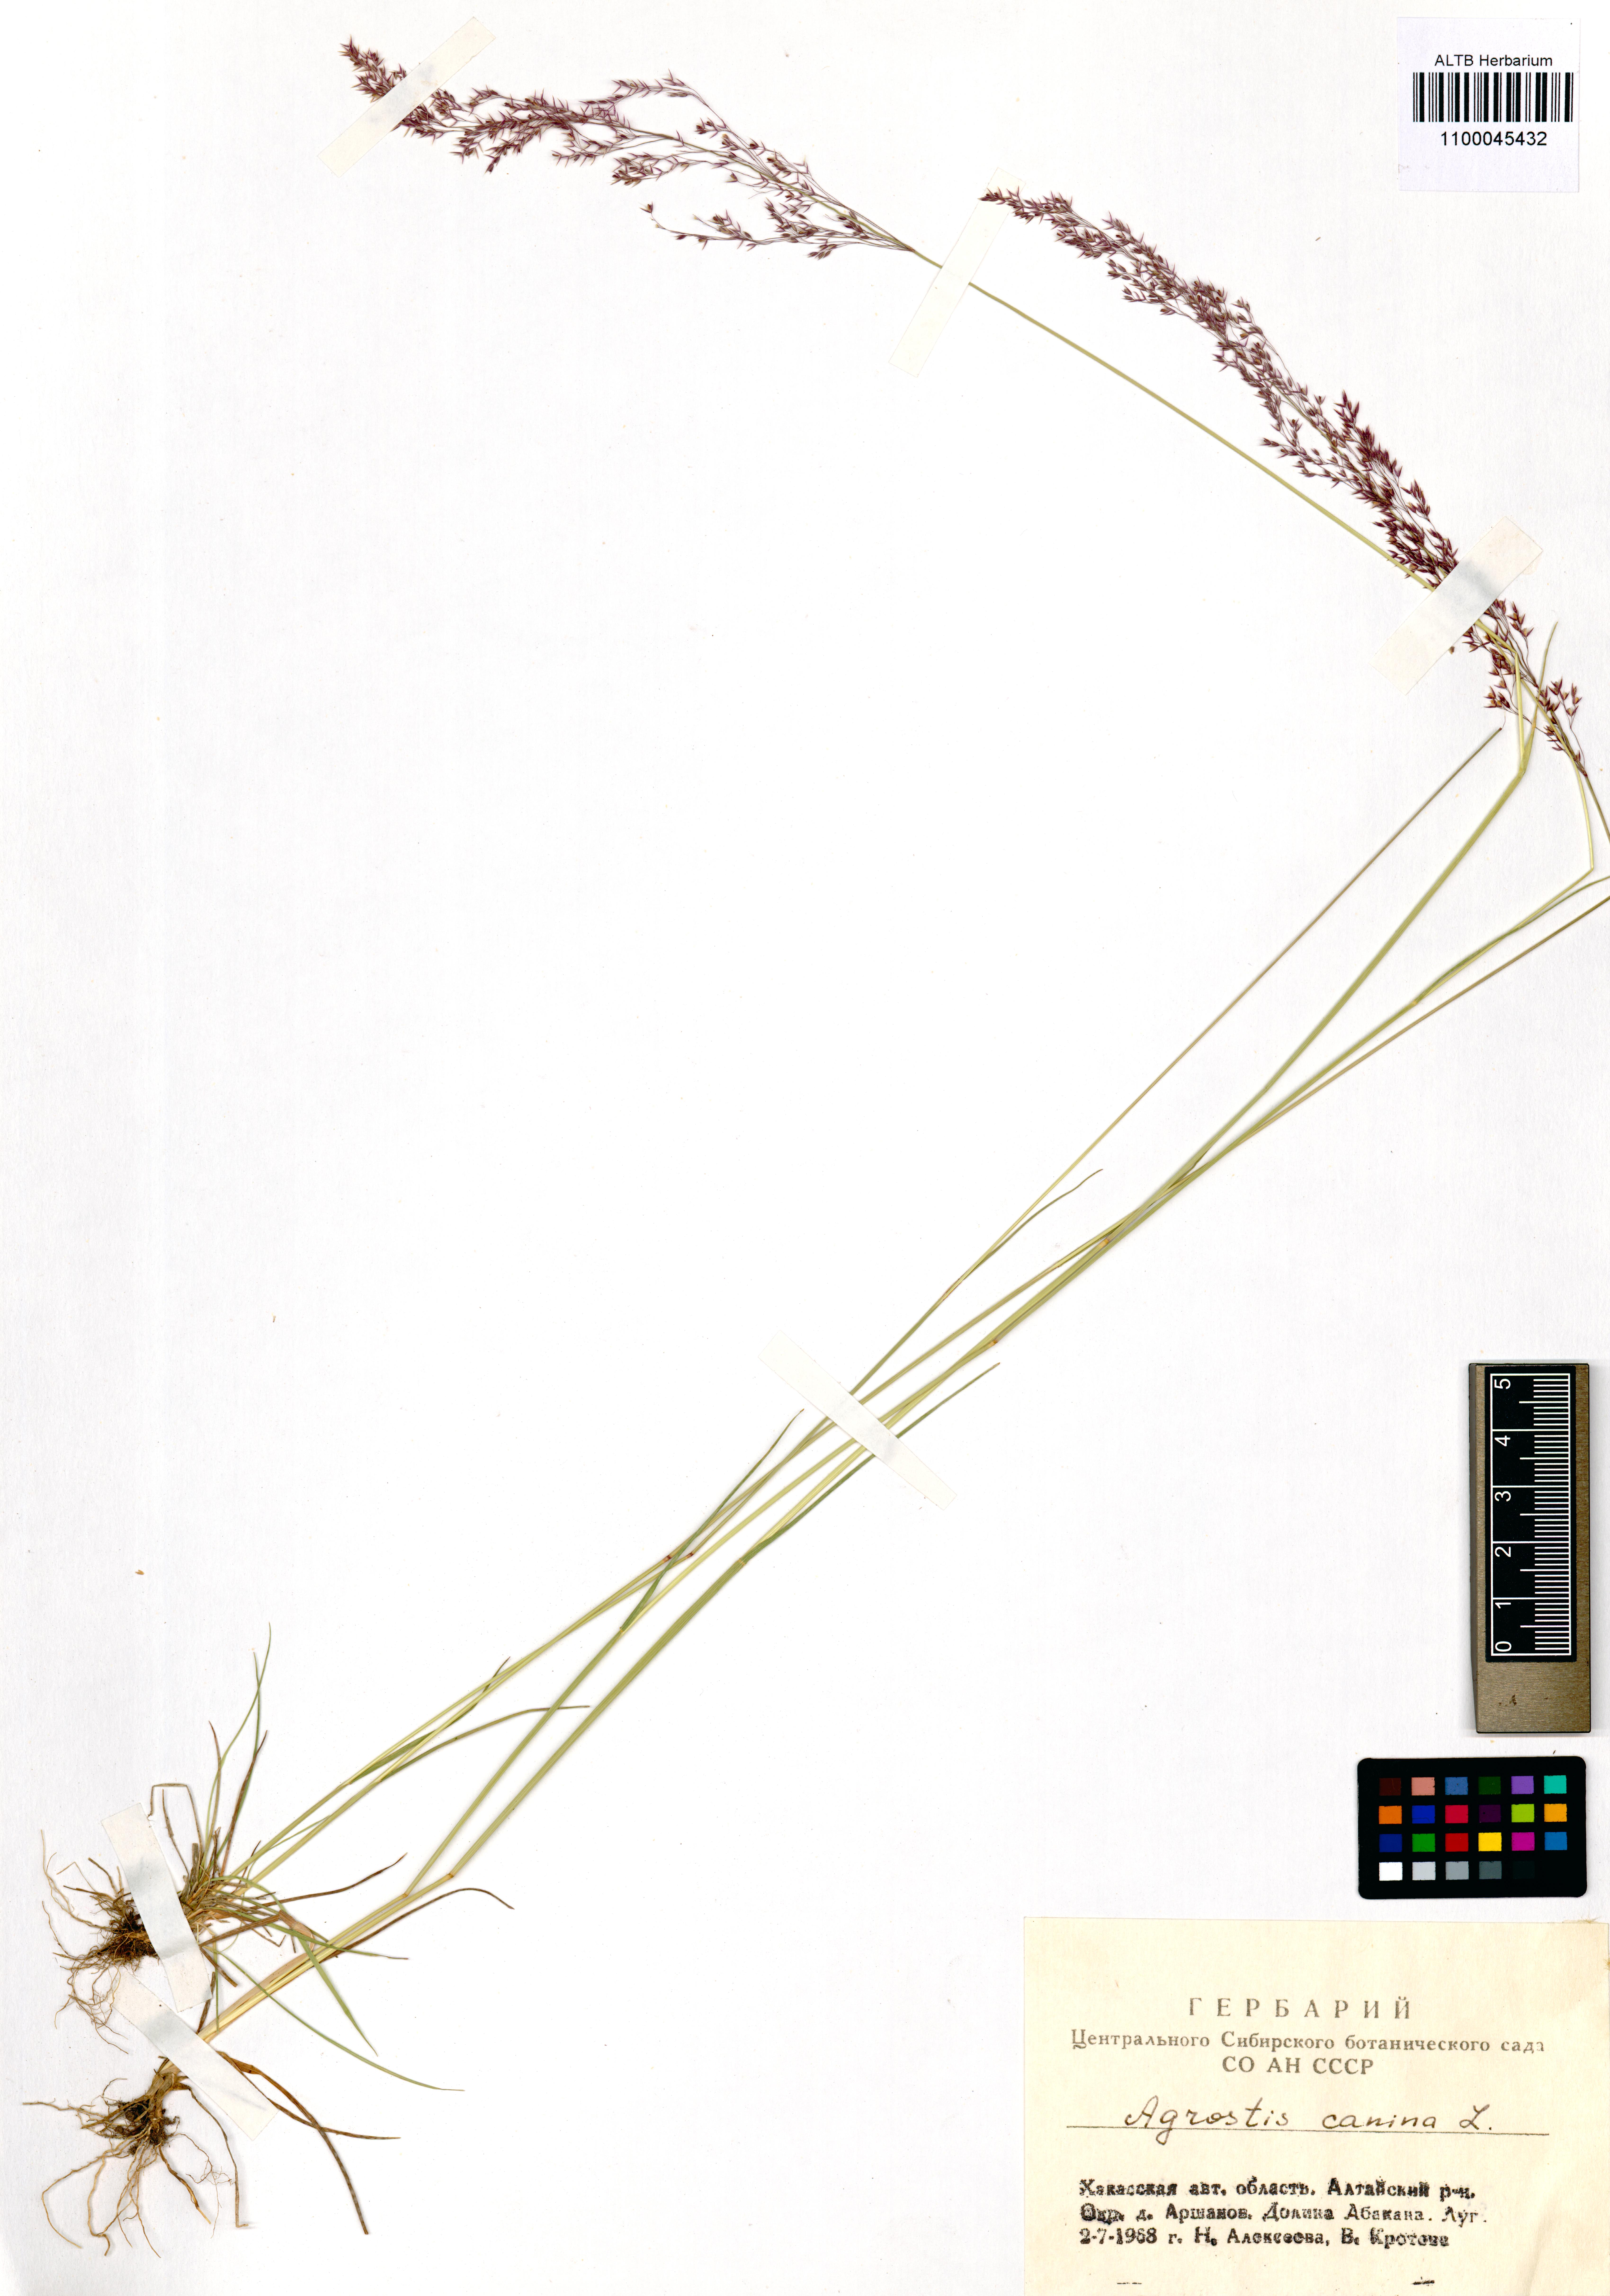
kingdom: Plantae
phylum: Tracheophyta
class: Liliopsida
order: Poales
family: Poaceae
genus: Agrostis
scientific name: Agrostis canina
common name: Velvet bent
